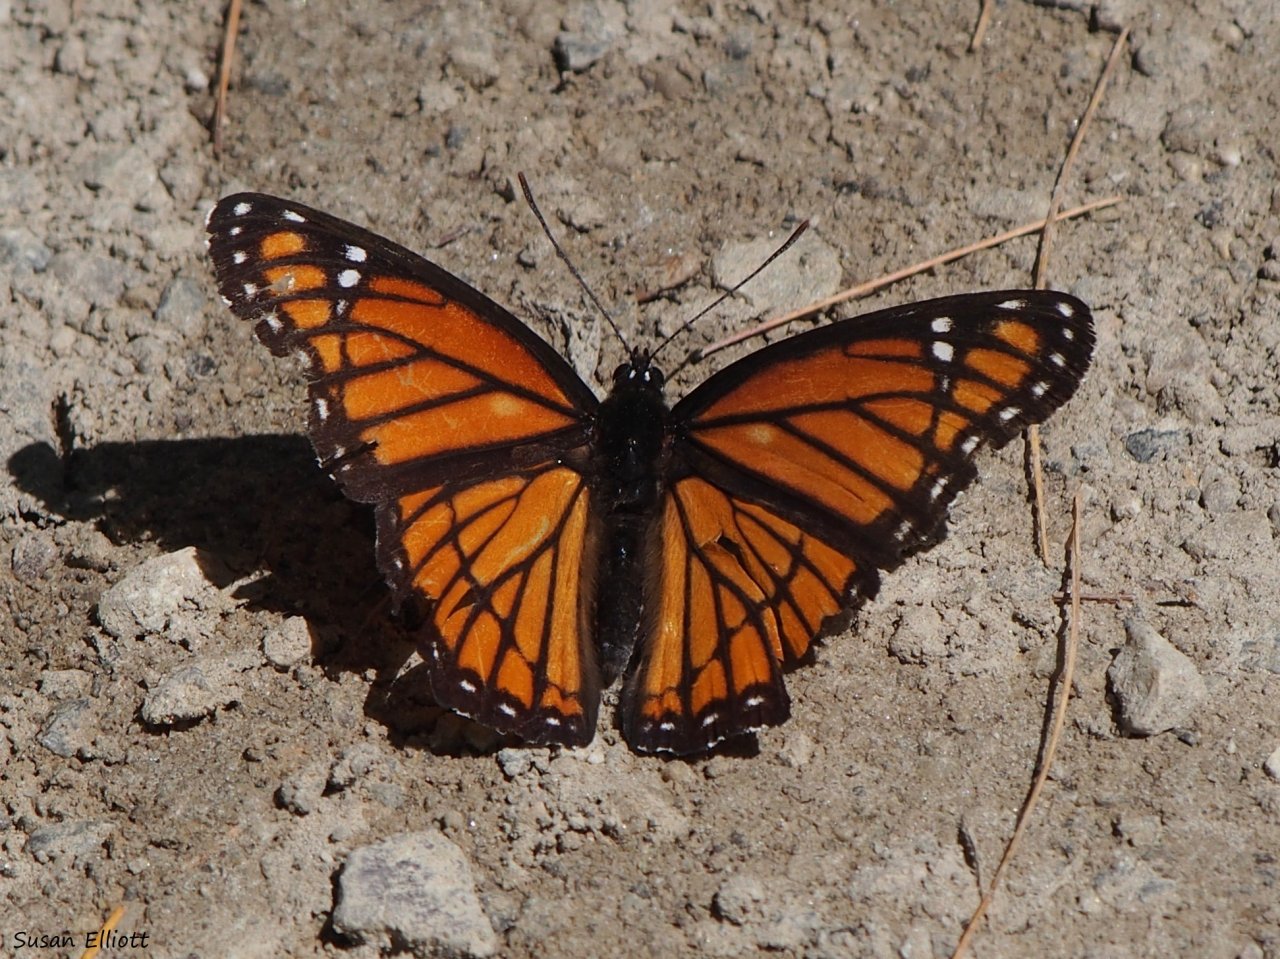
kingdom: Animalia
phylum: Arthropoda
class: Insecta
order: Lepidoptera
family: Nymphalidae
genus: Limenitis
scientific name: Limenitis archippus
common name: Viceroy
